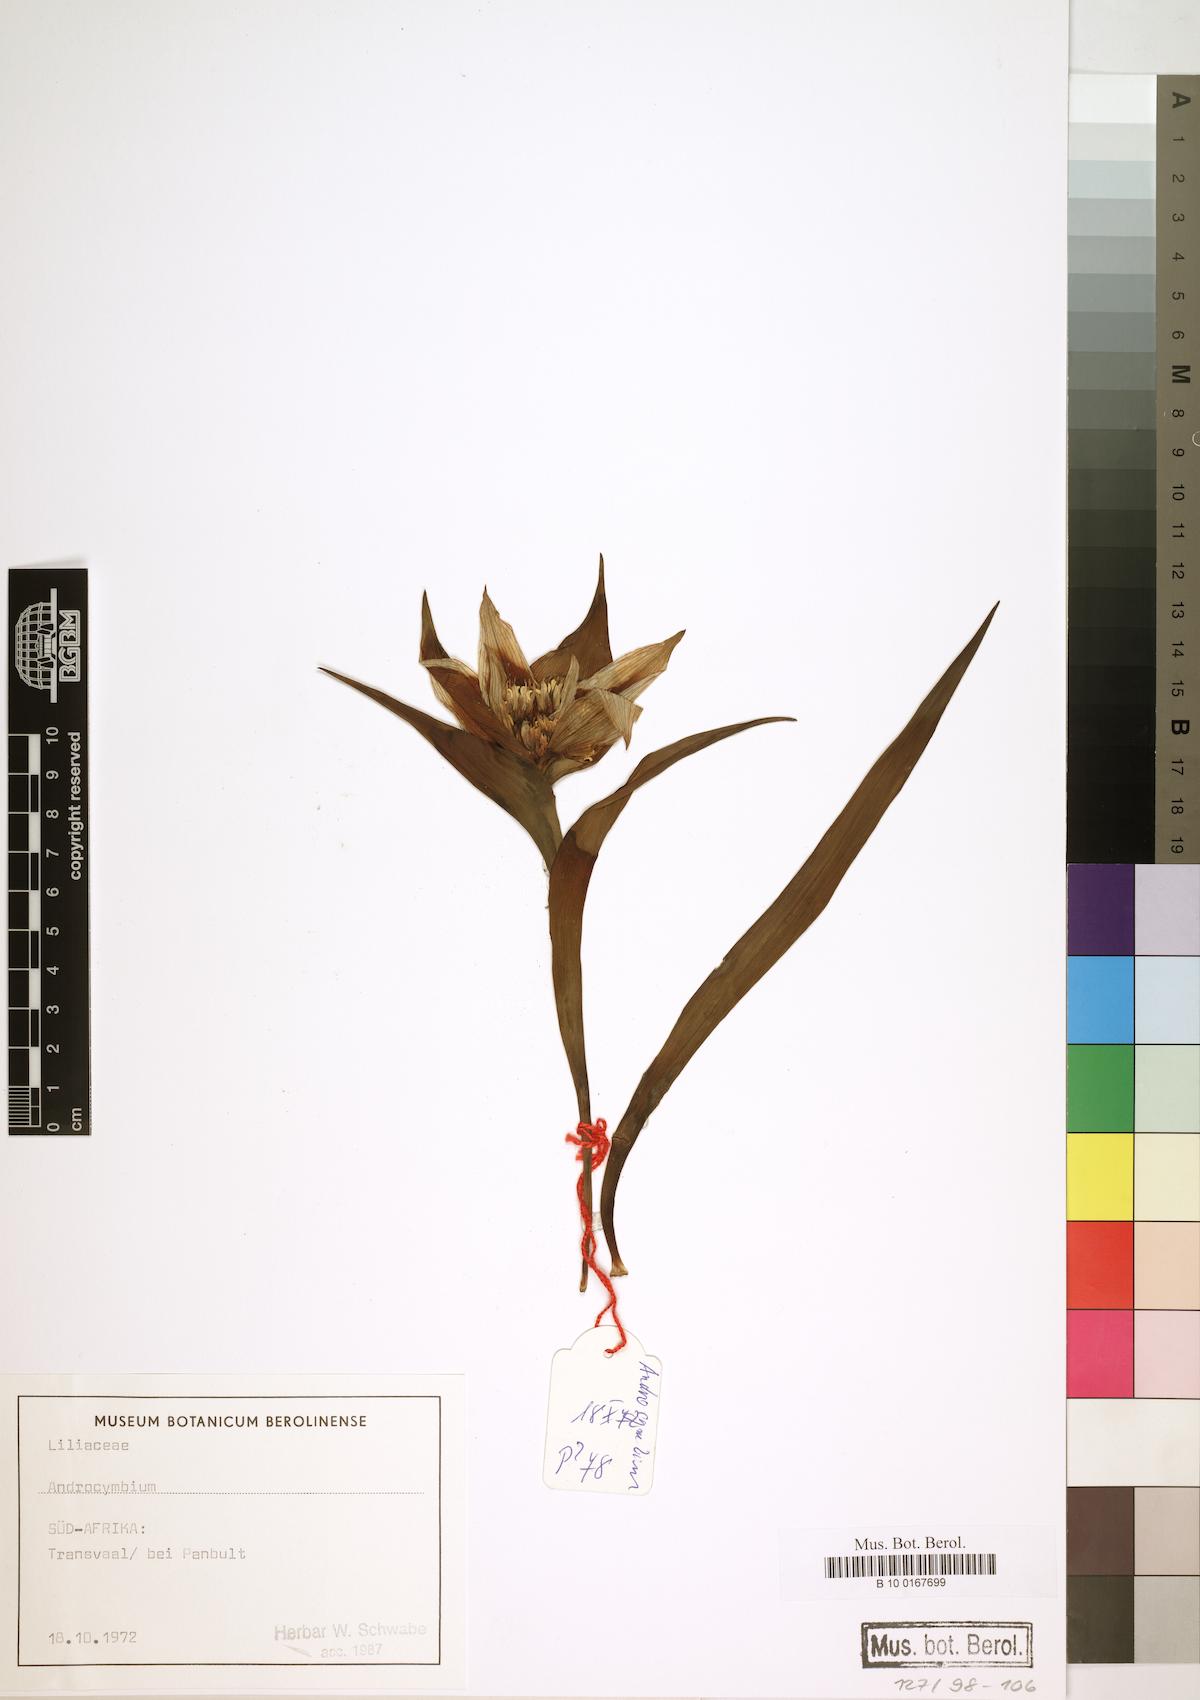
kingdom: Plantae
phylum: Tracheophyta
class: Liliopsida
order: Liliales
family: Colchicaceae
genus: Colchicum
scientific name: Colchicum
